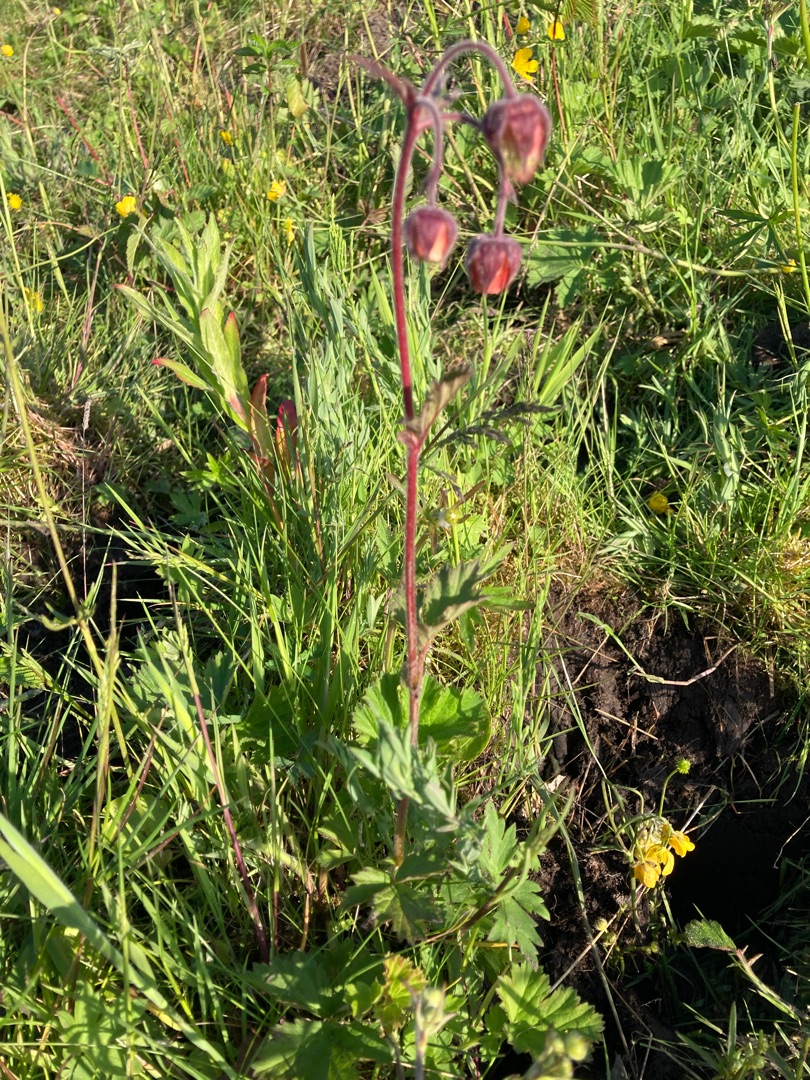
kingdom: Plantae
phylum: Tracheophyta
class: Magnoliopsida
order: Rosales
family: Rosaceae
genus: Geum
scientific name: Geum rivale
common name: Eng-nellikerod
